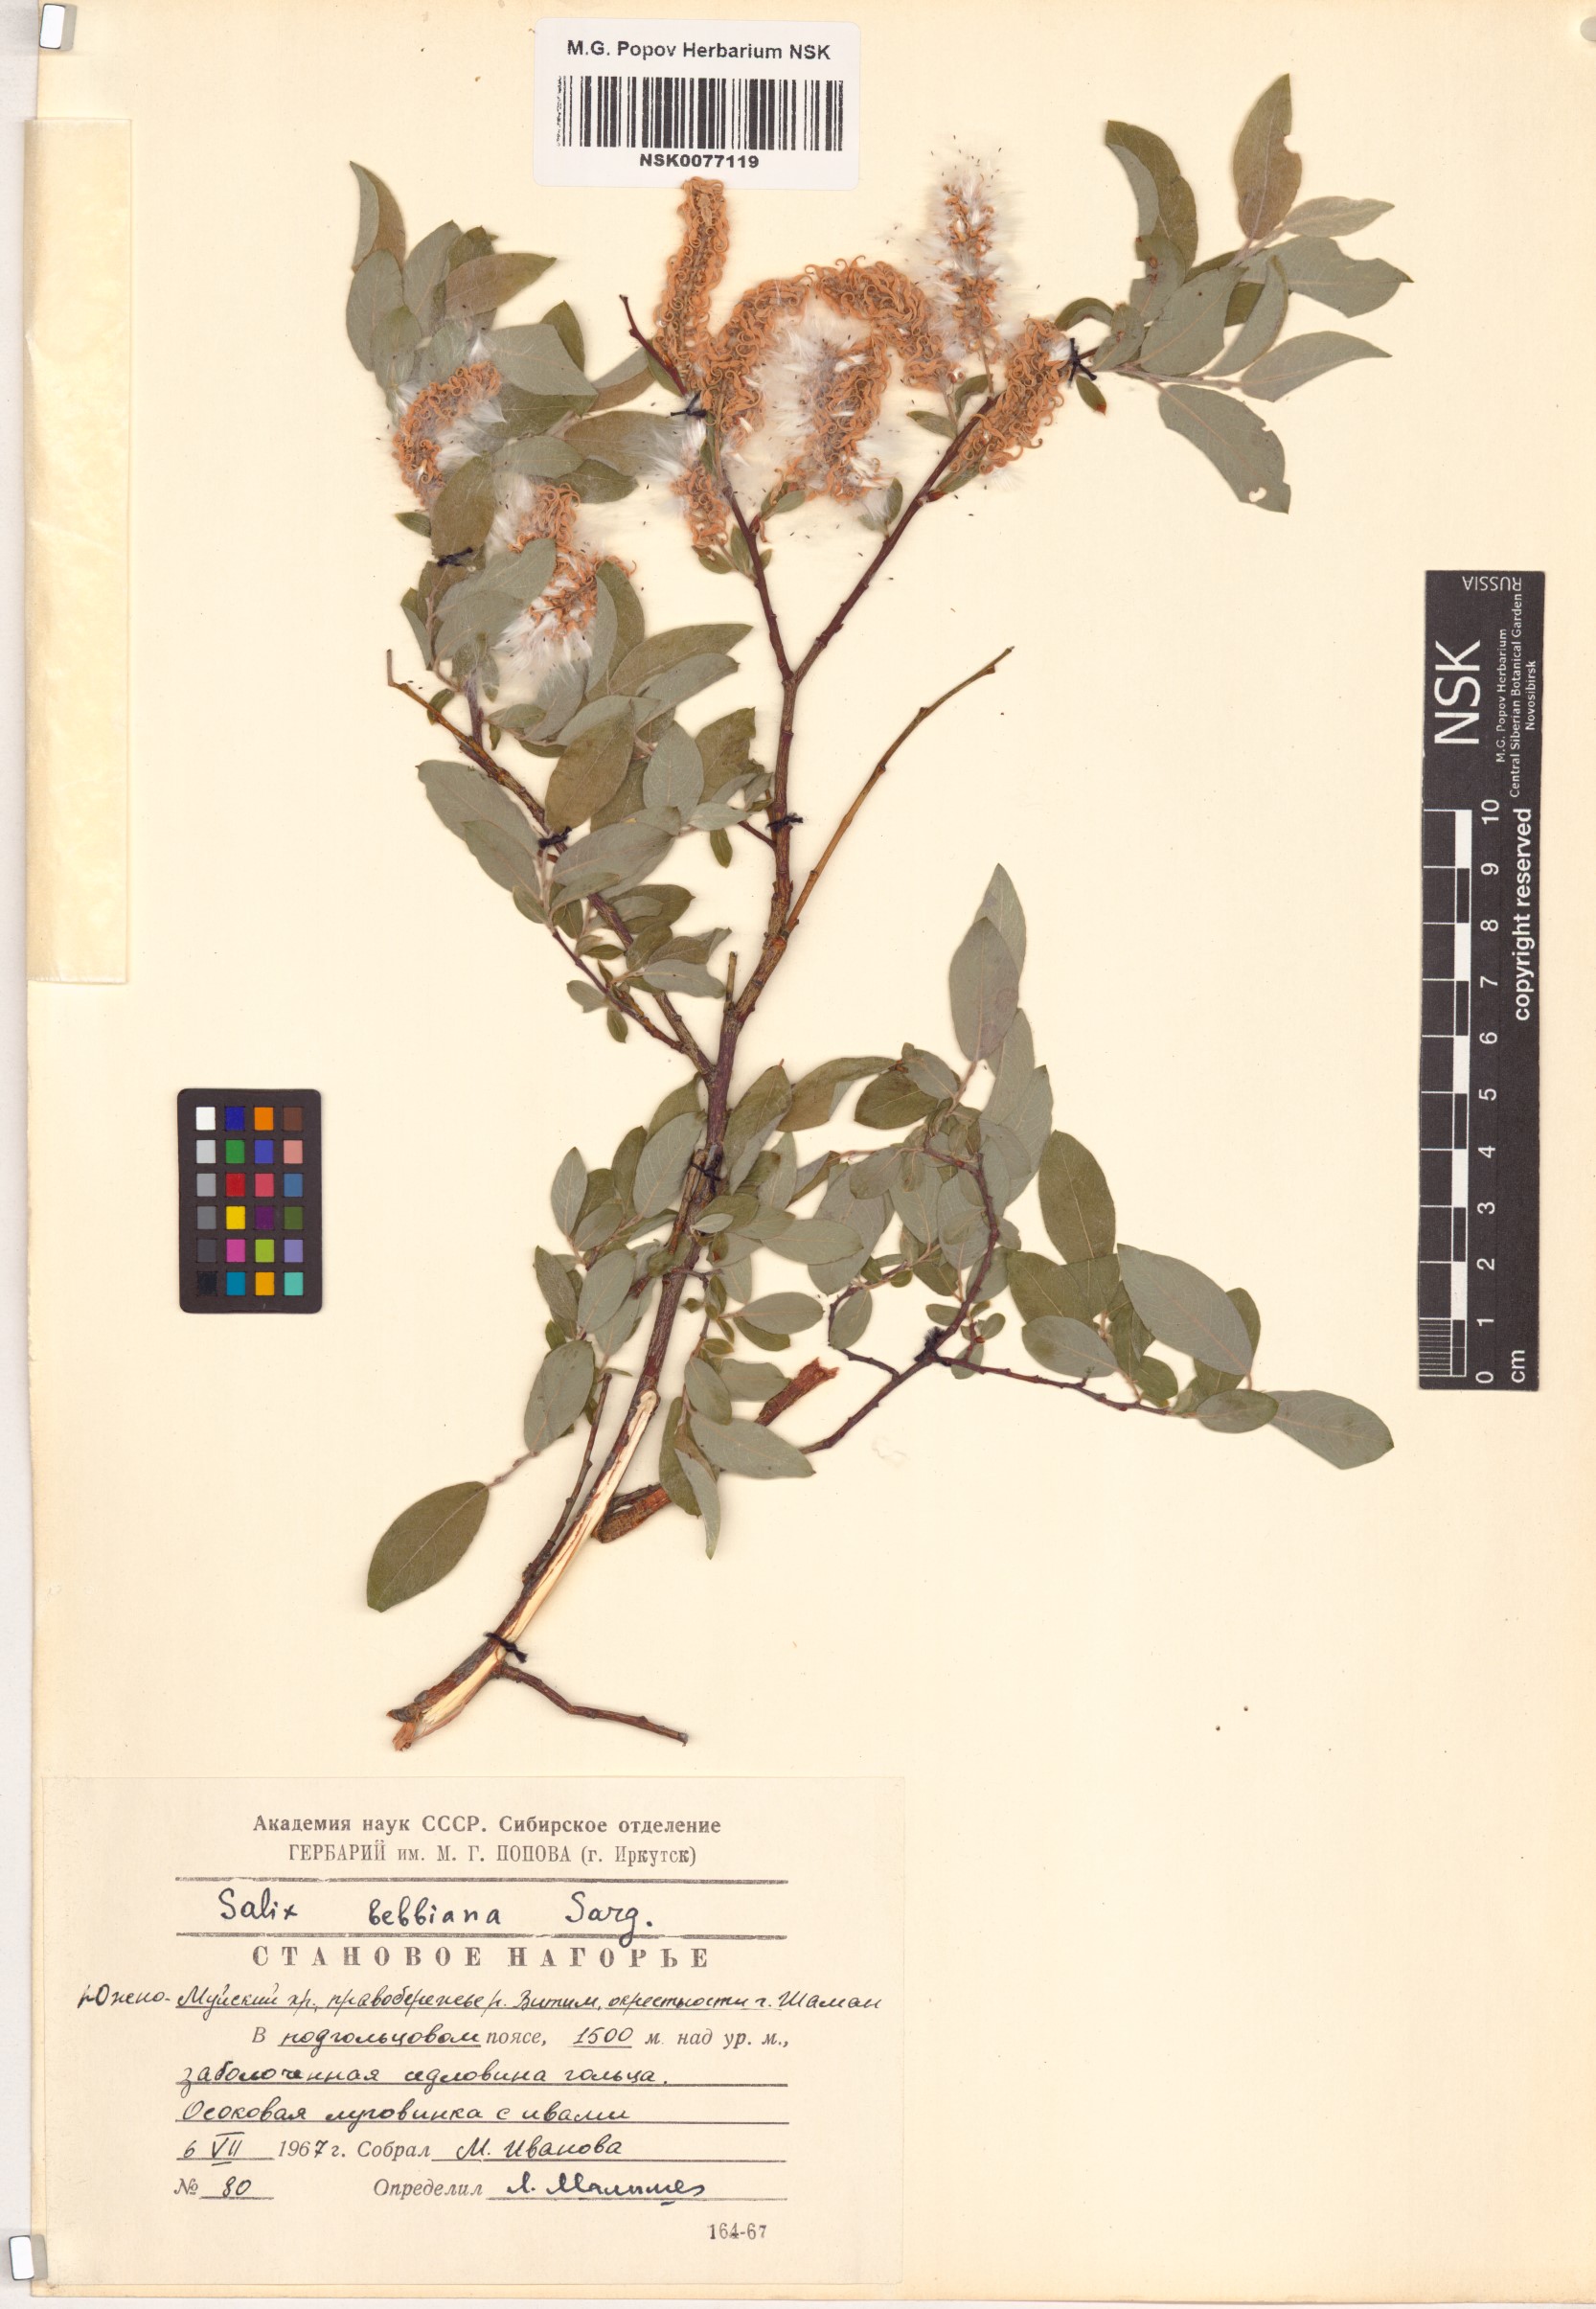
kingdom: Plantae
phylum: Tracheophyta
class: Magnoliopsida
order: Malpighiales
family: Salicaceae
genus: Salix
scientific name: Salix bebbiana
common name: Bebb's willow
